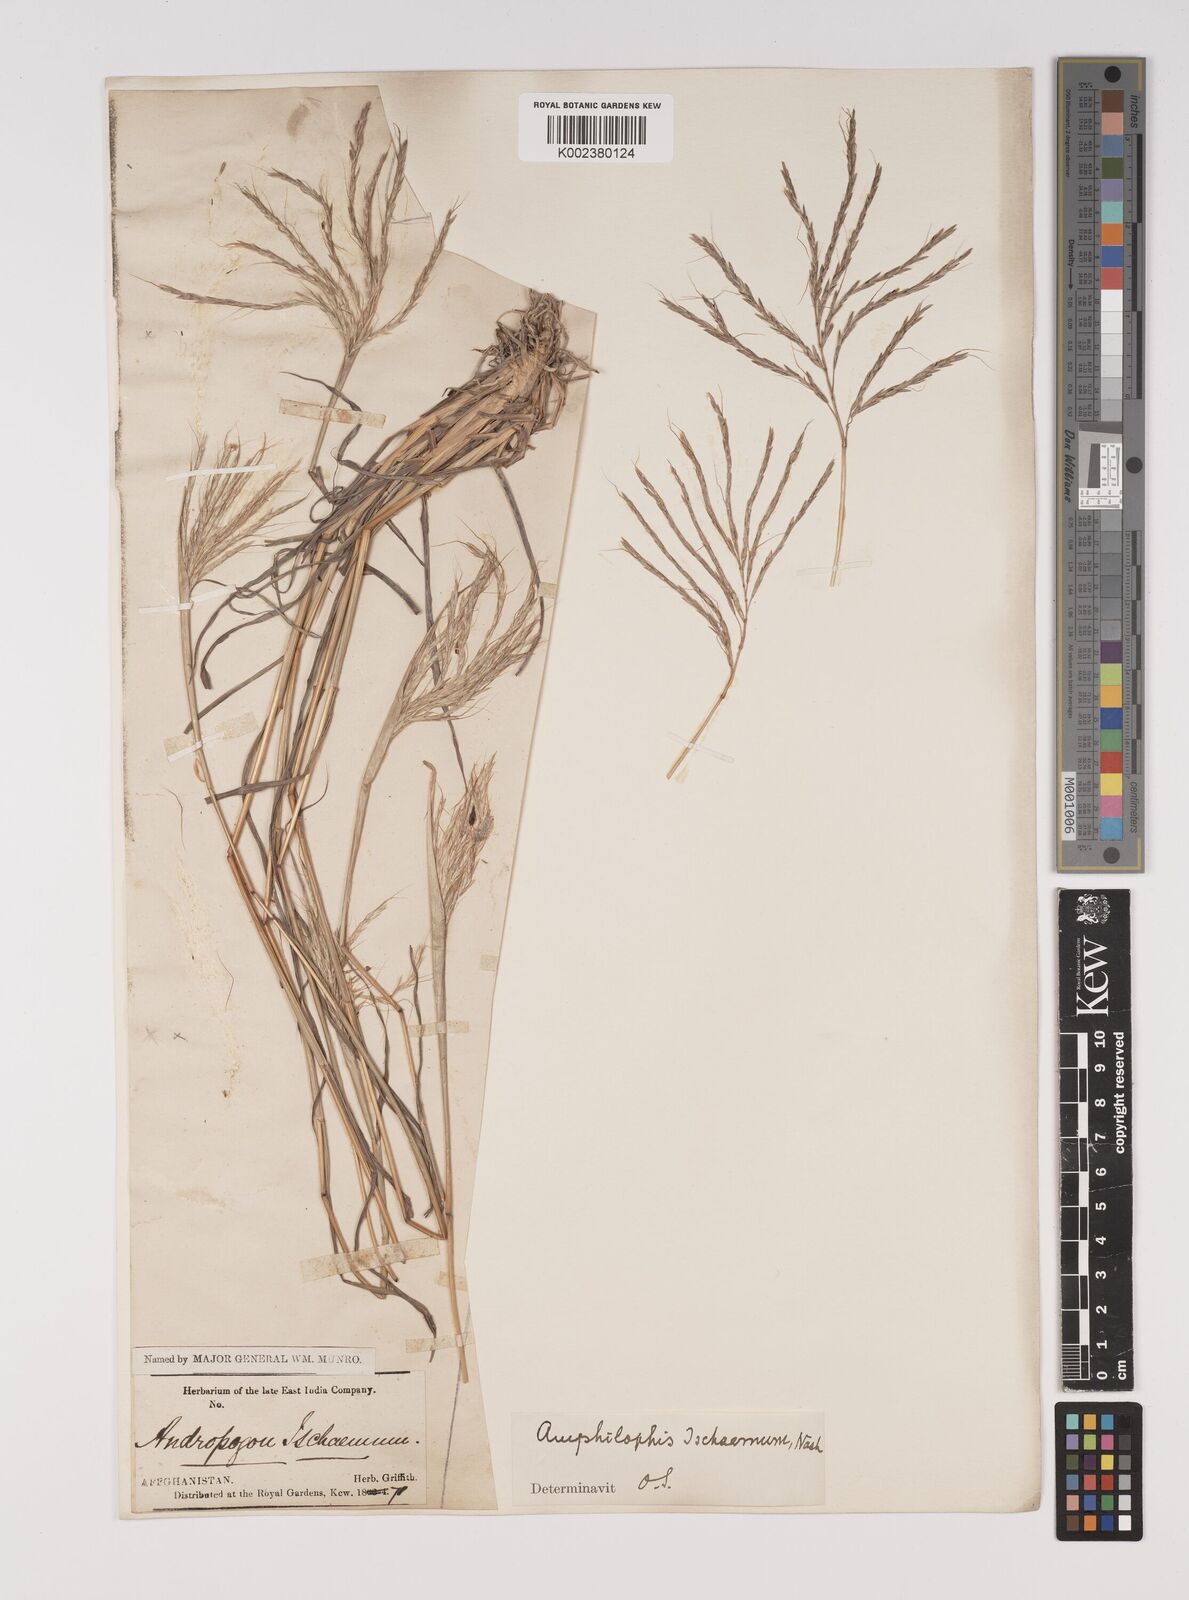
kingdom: Plantae
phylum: Tracheophyta
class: Liliopsida
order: Poales
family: Poaceae
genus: Bothriochloa
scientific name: Bothriochloa ischaemum
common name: Yellow bluestem
